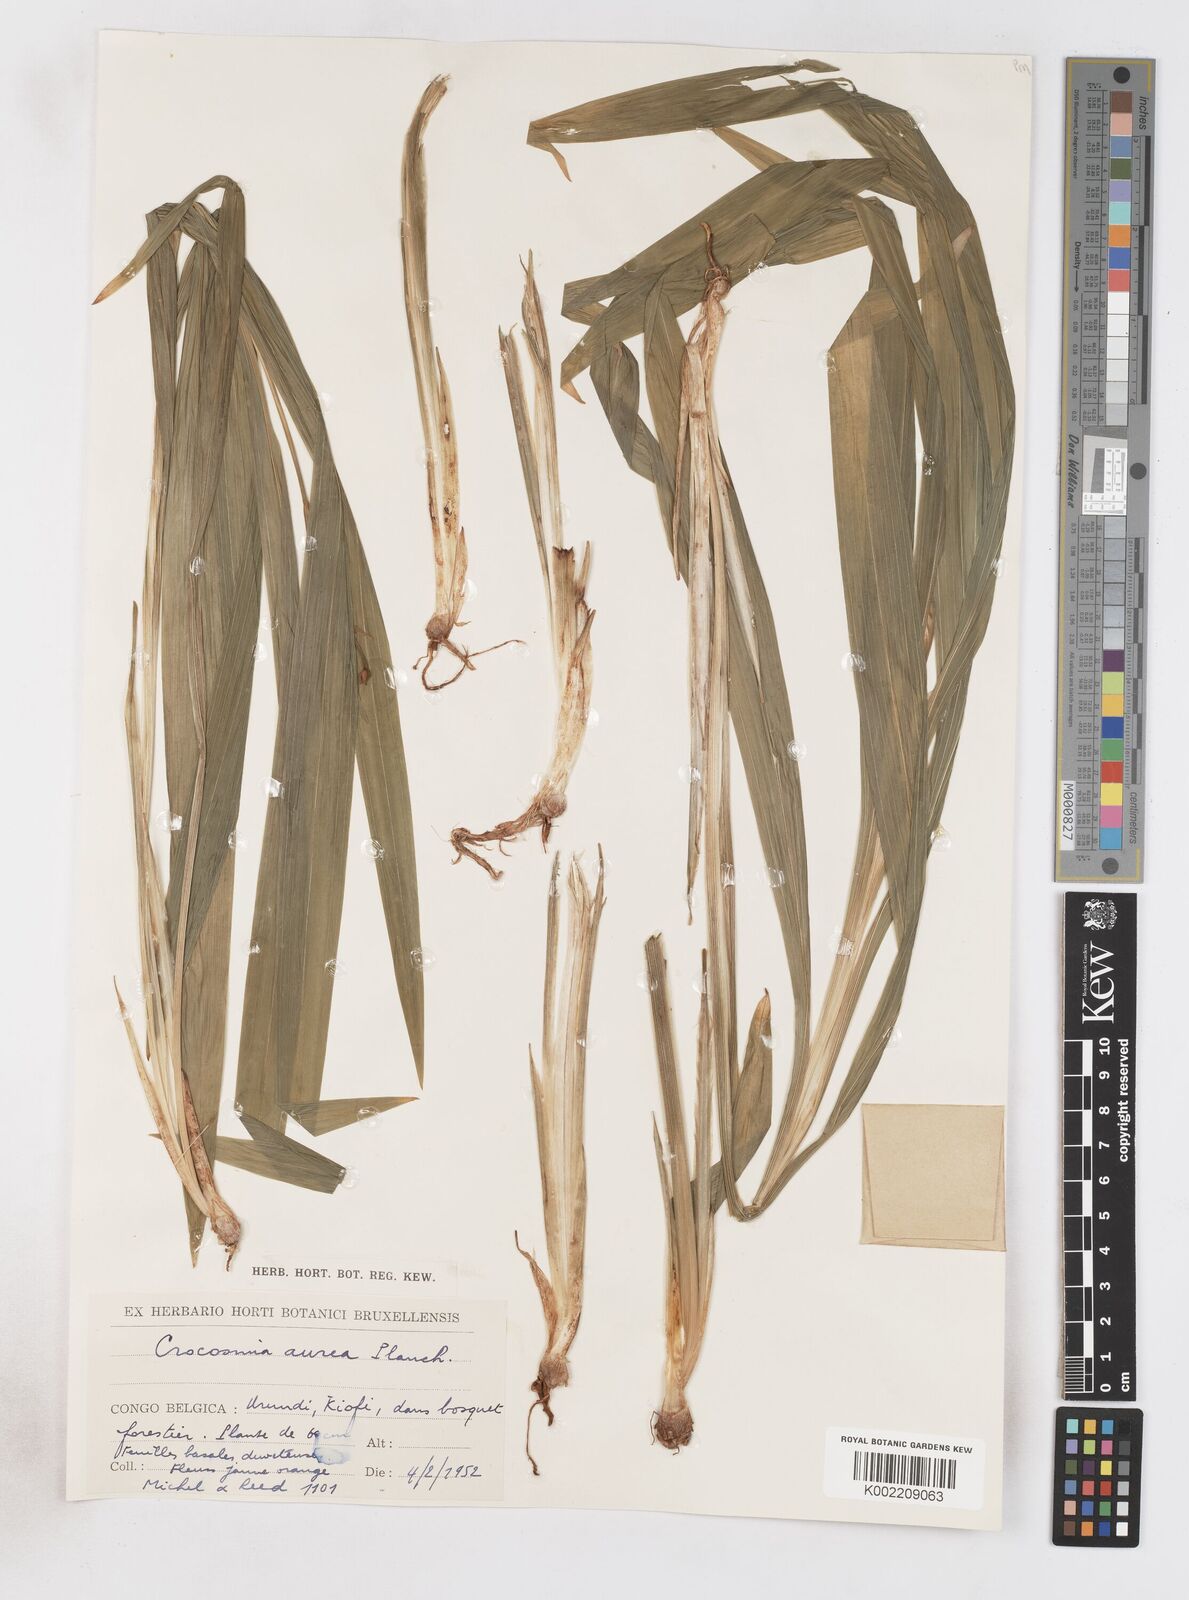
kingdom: Plantae
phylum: Tracheophyta
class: Liliopsida
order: Asparagales
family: Iridaceae
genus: Crocosmia
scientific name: Crocosmia aurea
